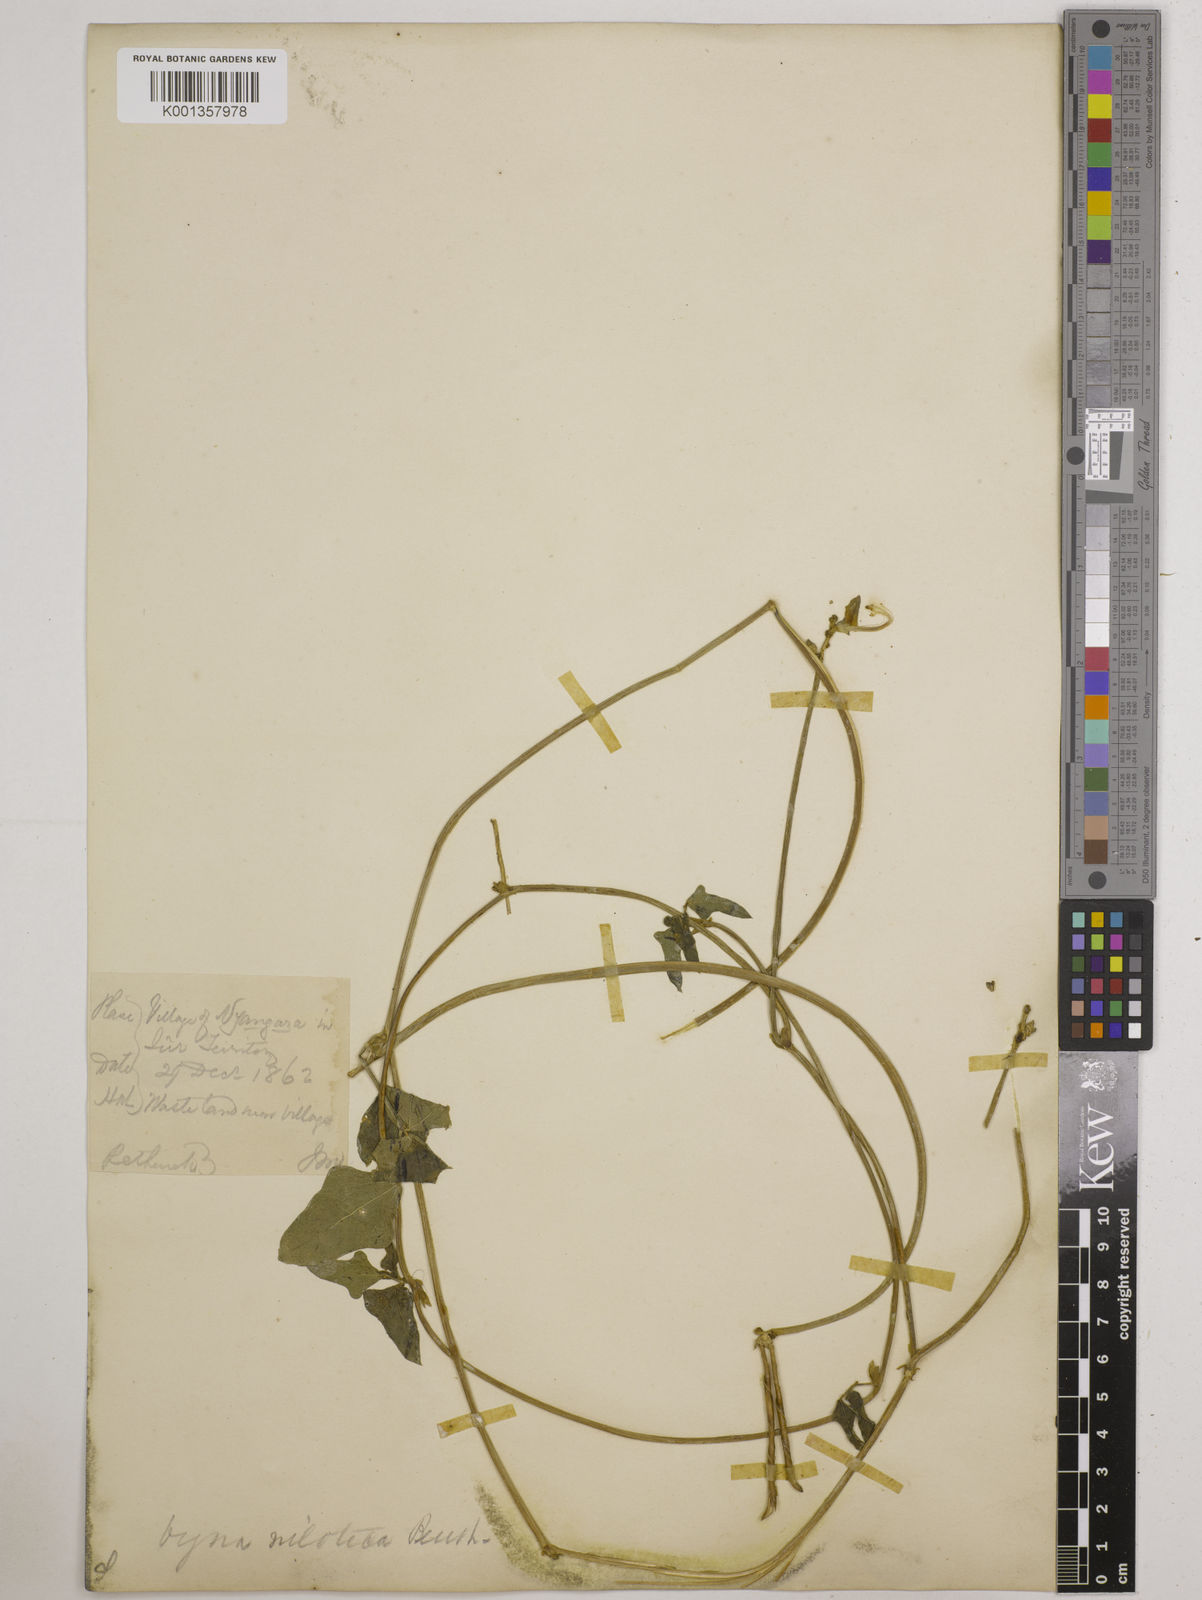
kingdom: Plantae
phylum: Tracheophyta
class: Magnoliopsida
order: Fabales
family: Fabaceae
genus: Vigna
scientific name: Vigna
